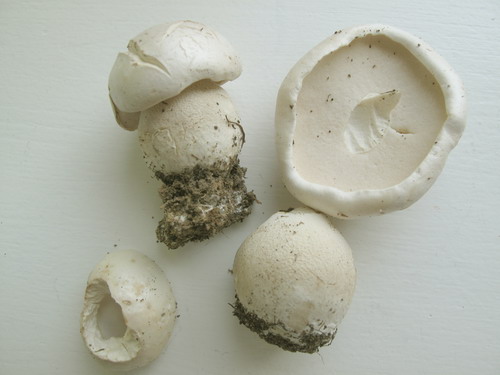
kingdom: Fungi
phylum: Basidiomycota
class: Agaricomycetes
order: Boletales
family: Boletaceae
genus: Boletus
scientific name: Boletus reticulatus
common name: sommer-rørhat
